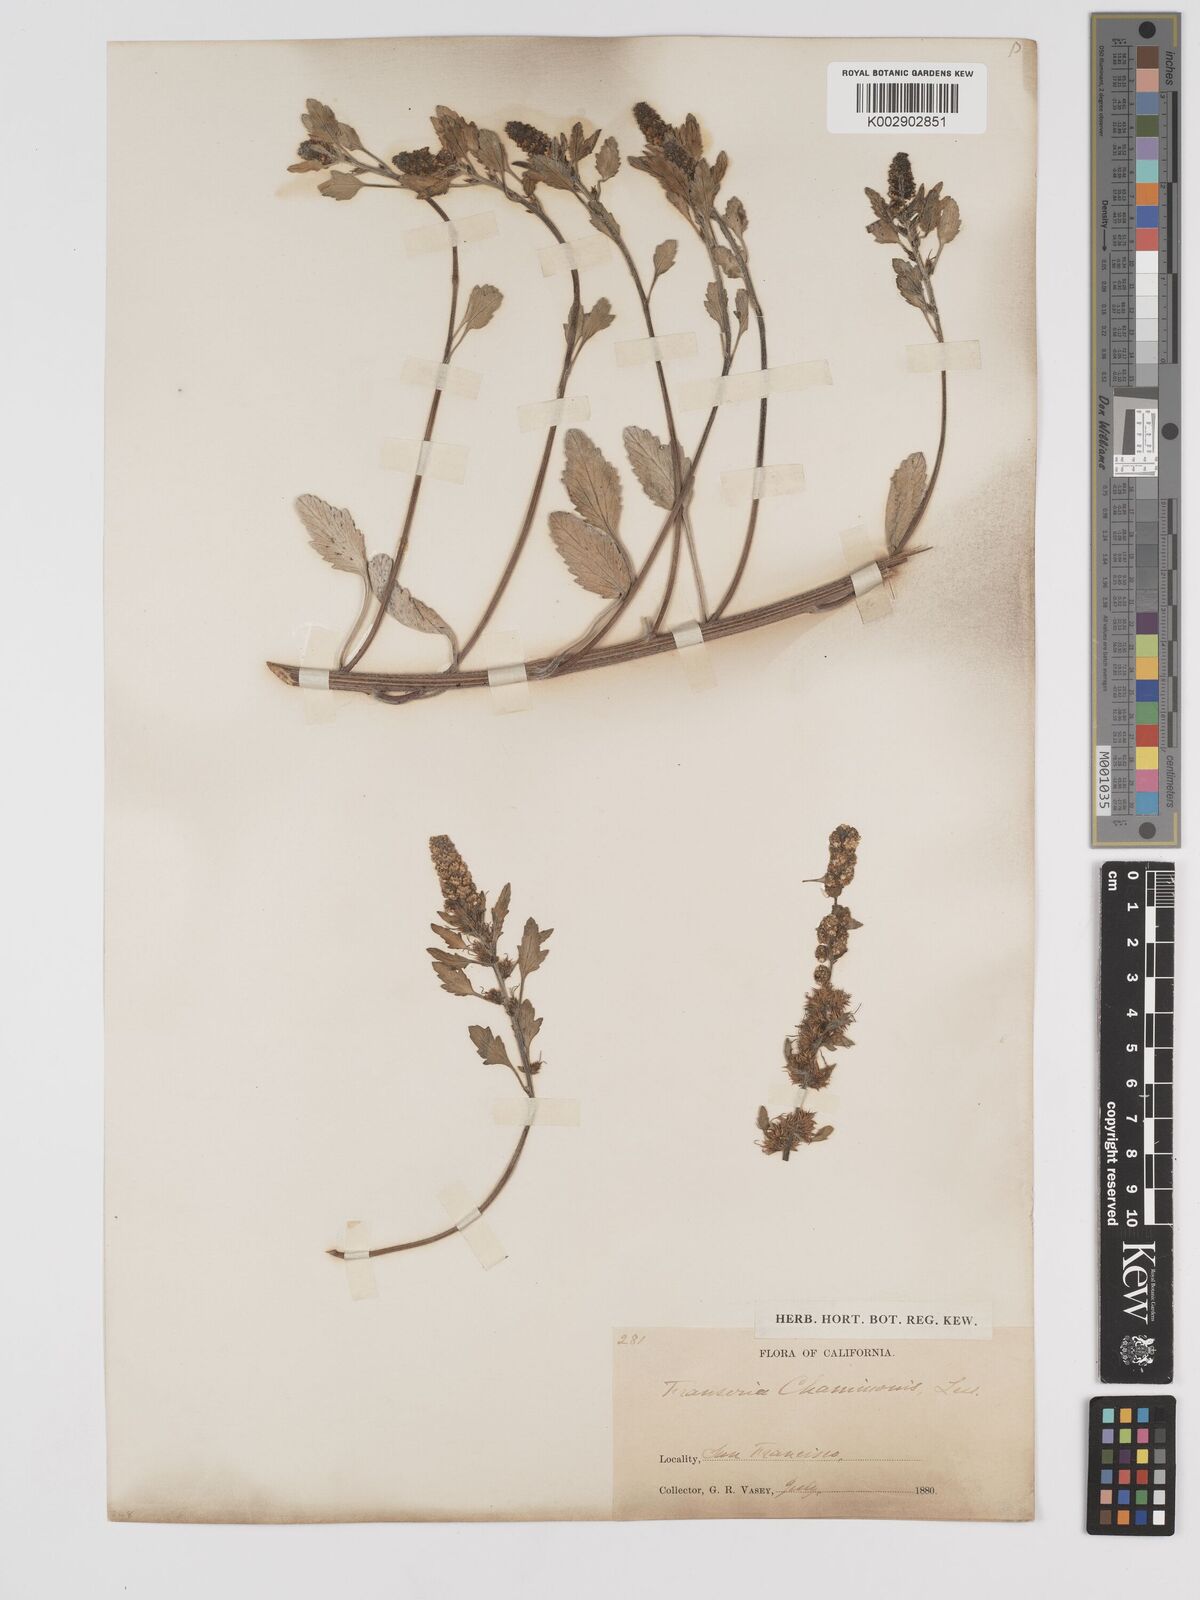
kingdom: Plantae
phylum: Tracheophyta
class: Magnoliopsida
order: Asterales
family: Asteraceae
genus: Ambrosia
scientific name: Ambrosia chamissonis
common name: Beachbur
